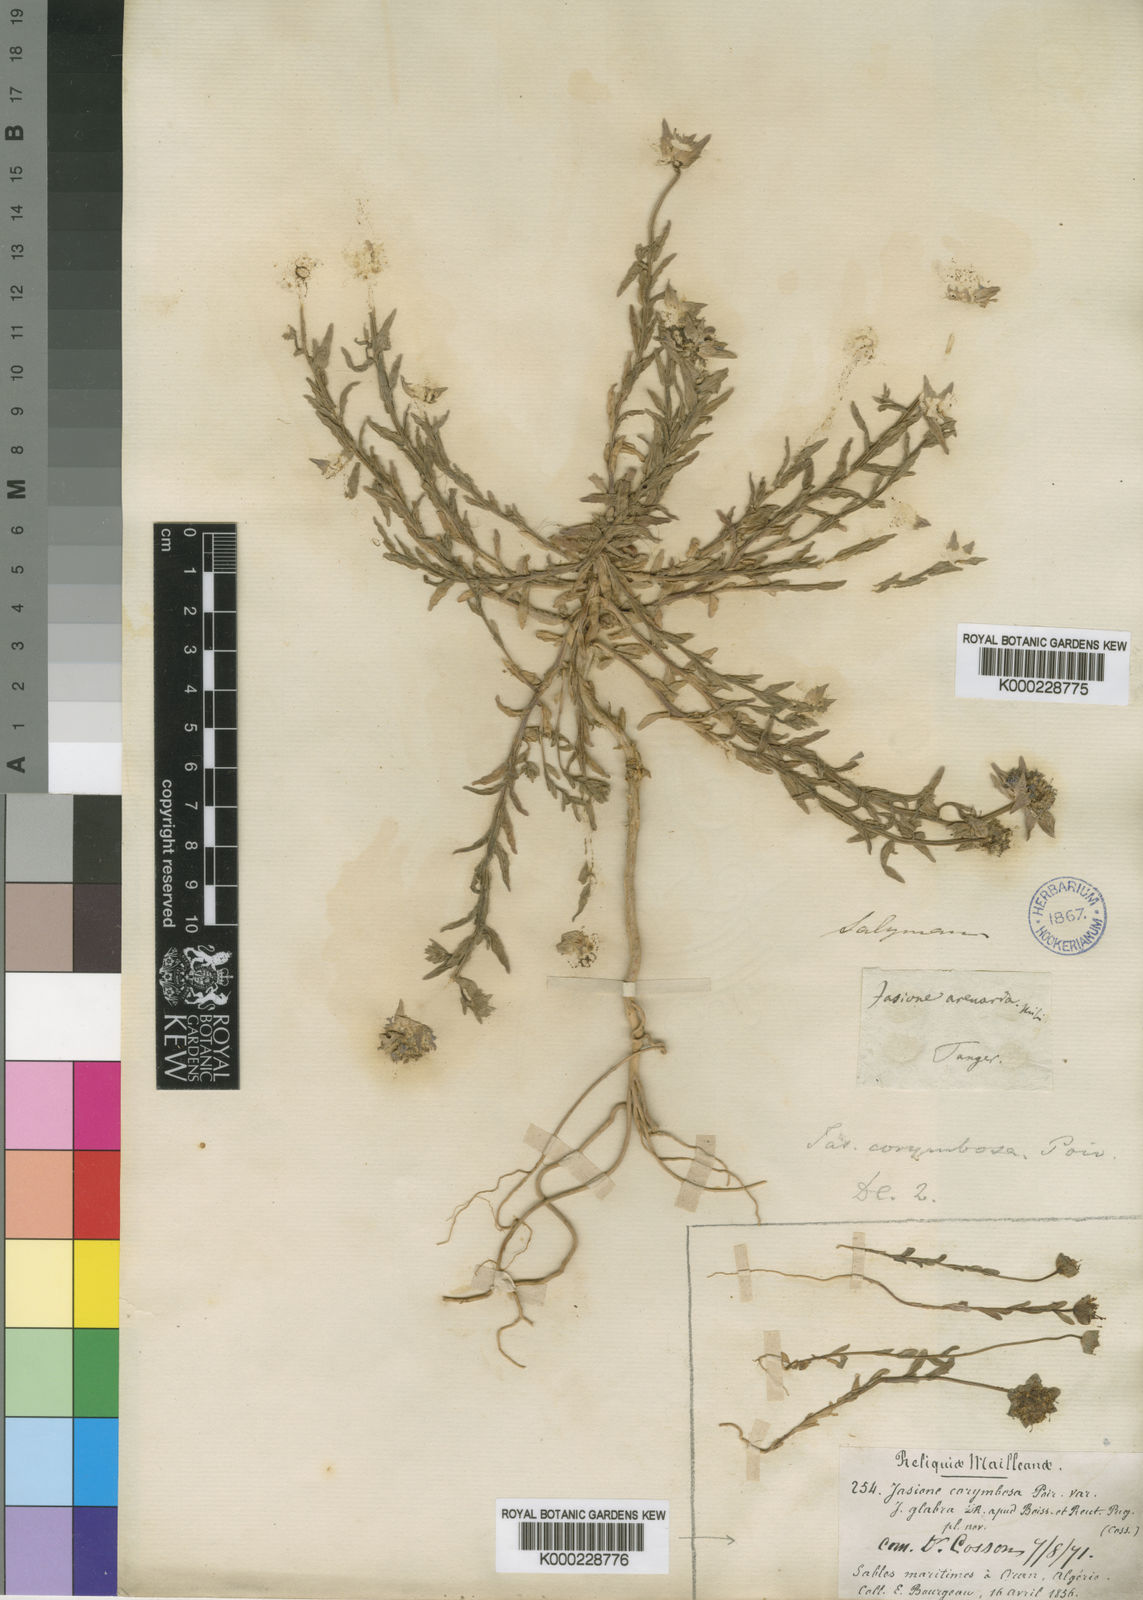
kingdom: Plantae
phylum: Tracheophyta
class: Magnoliopsida
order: Asterales
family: Campanulaceae
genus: Jasione
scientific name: Jasione
